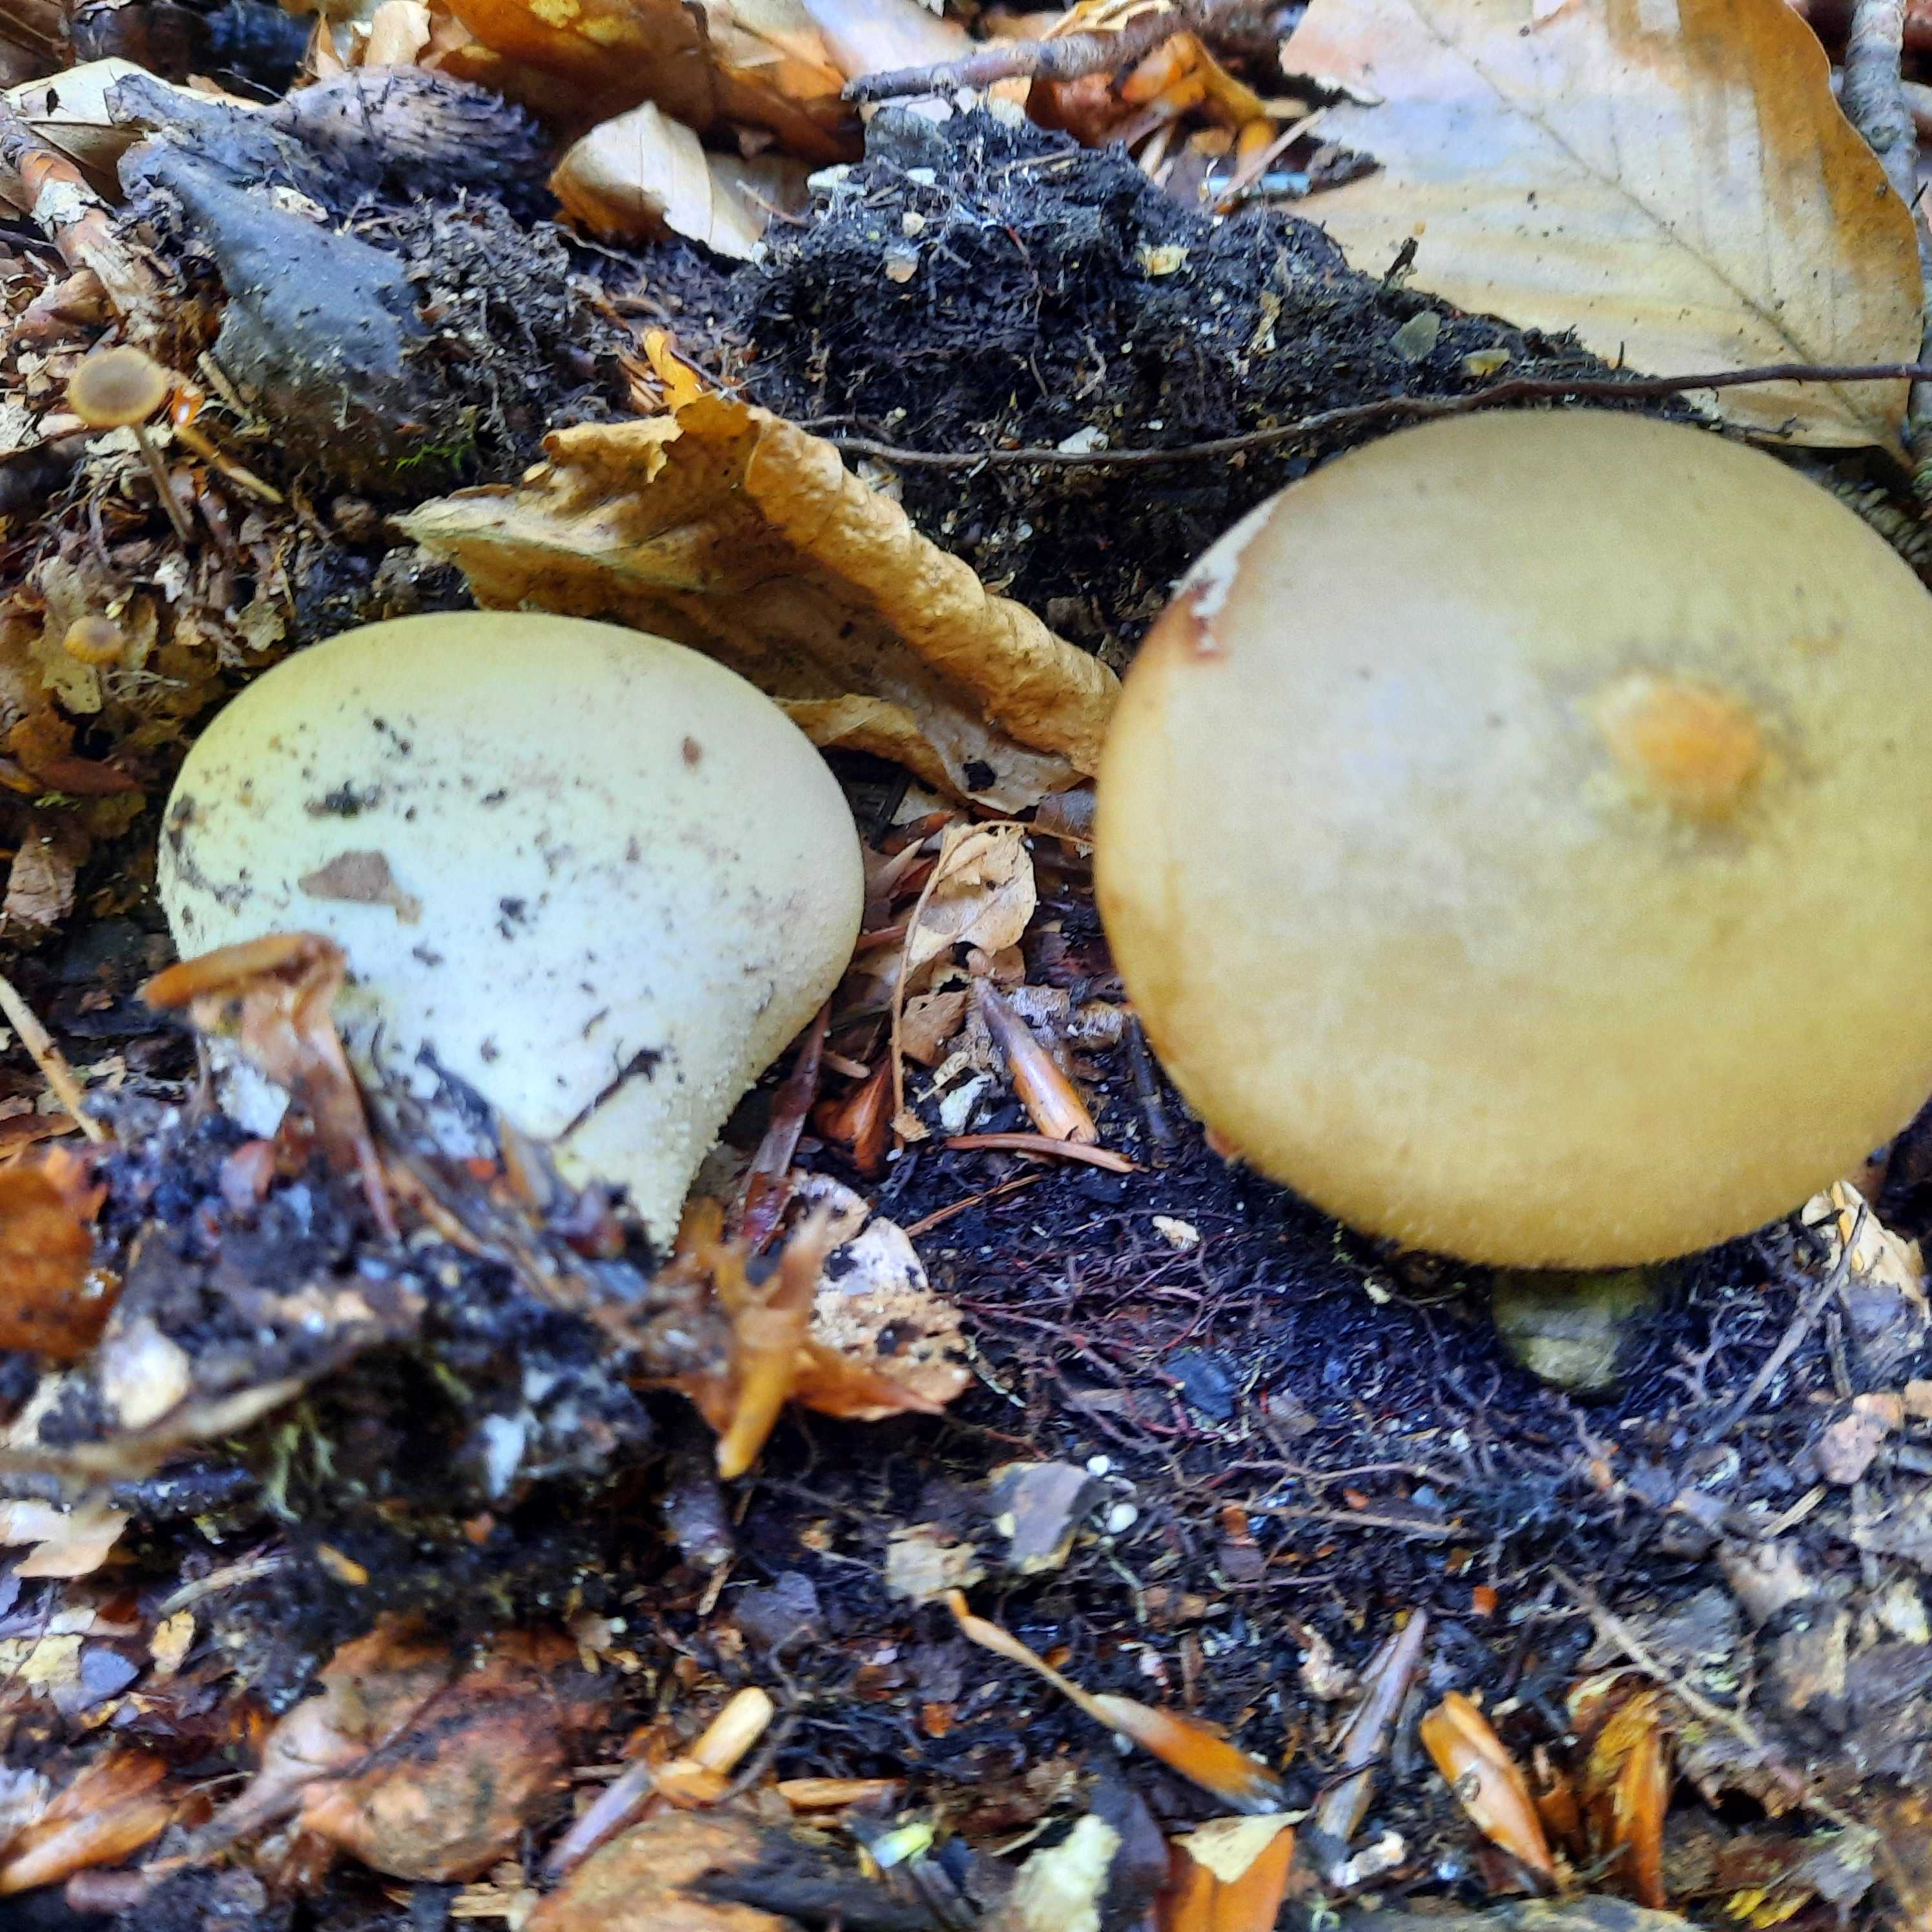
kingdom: Fungi
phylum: Basidiomycota
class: Agaricomycetes
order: Agaricales
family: Lycoperdaceae
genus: Apioperdon
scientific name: Apioperdon pyriforme
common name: pære-støvbold
